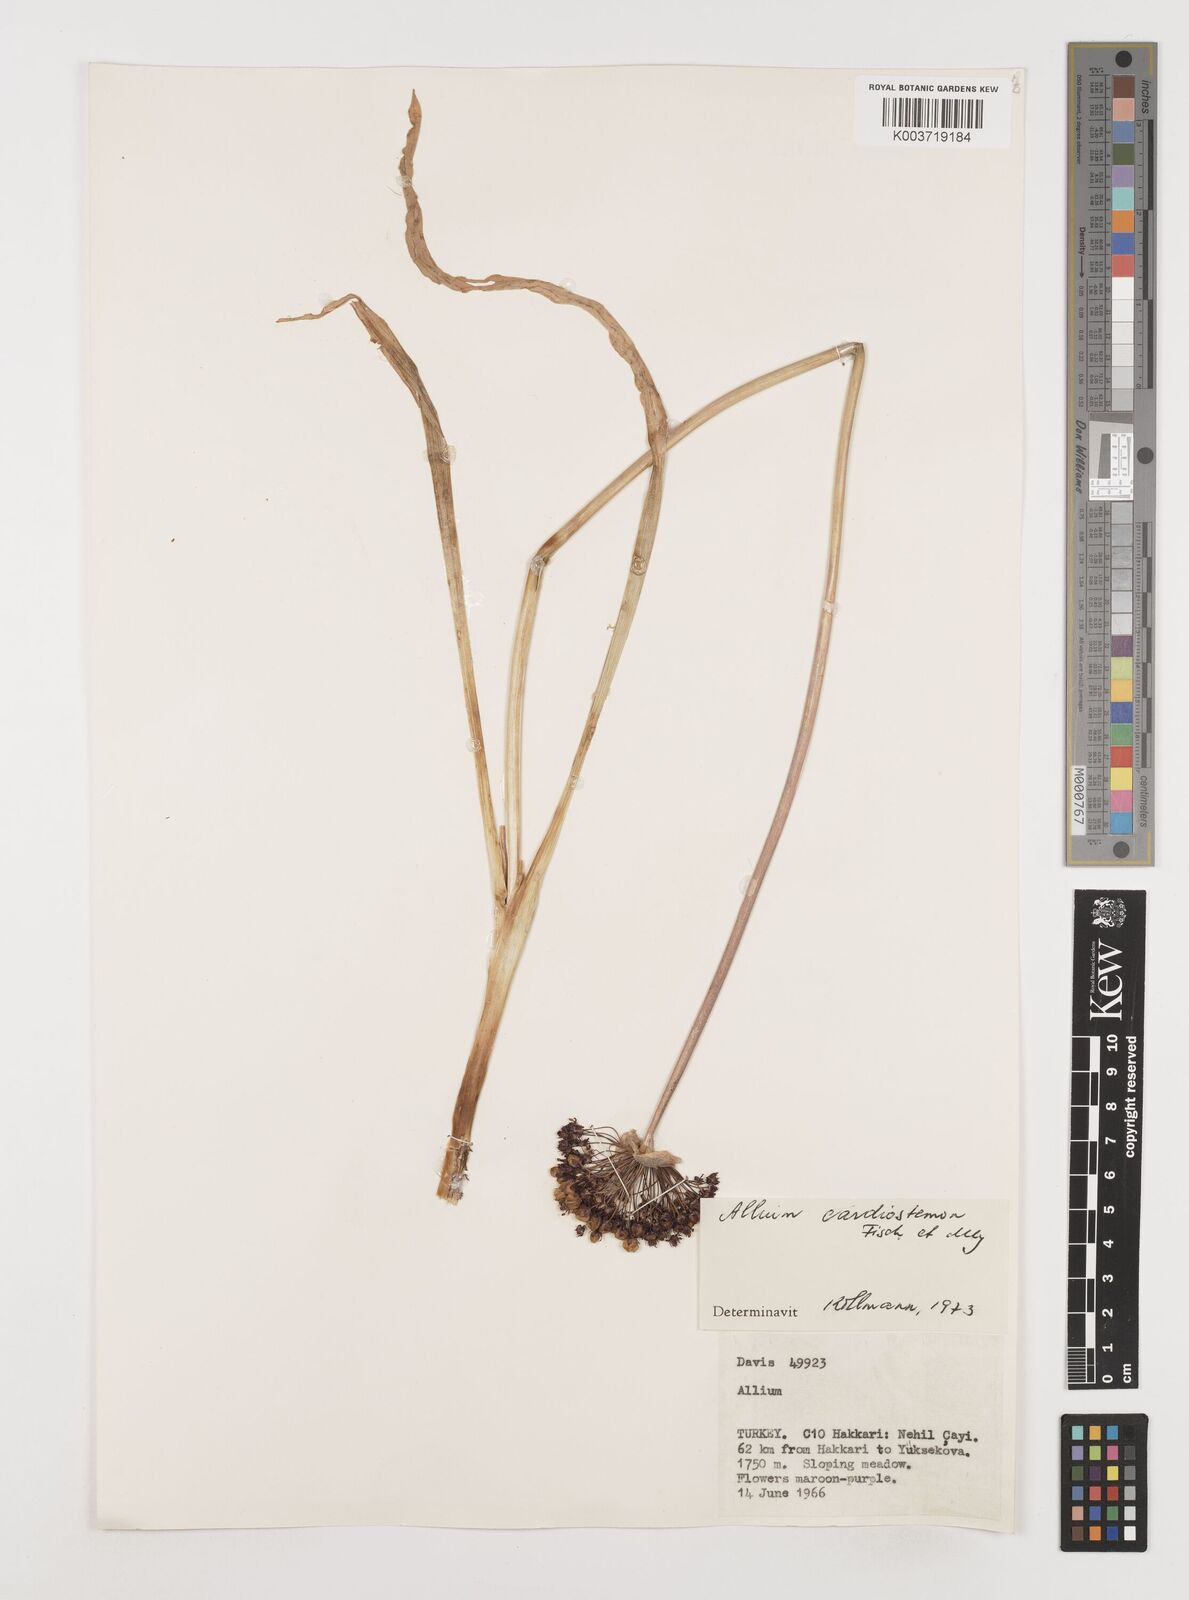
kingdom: Plantae
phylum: Tracheophyta
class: Liliopsida
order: Asparagales
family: Amaryllidaceae
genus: Allium
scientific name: Allium cardiostemon
